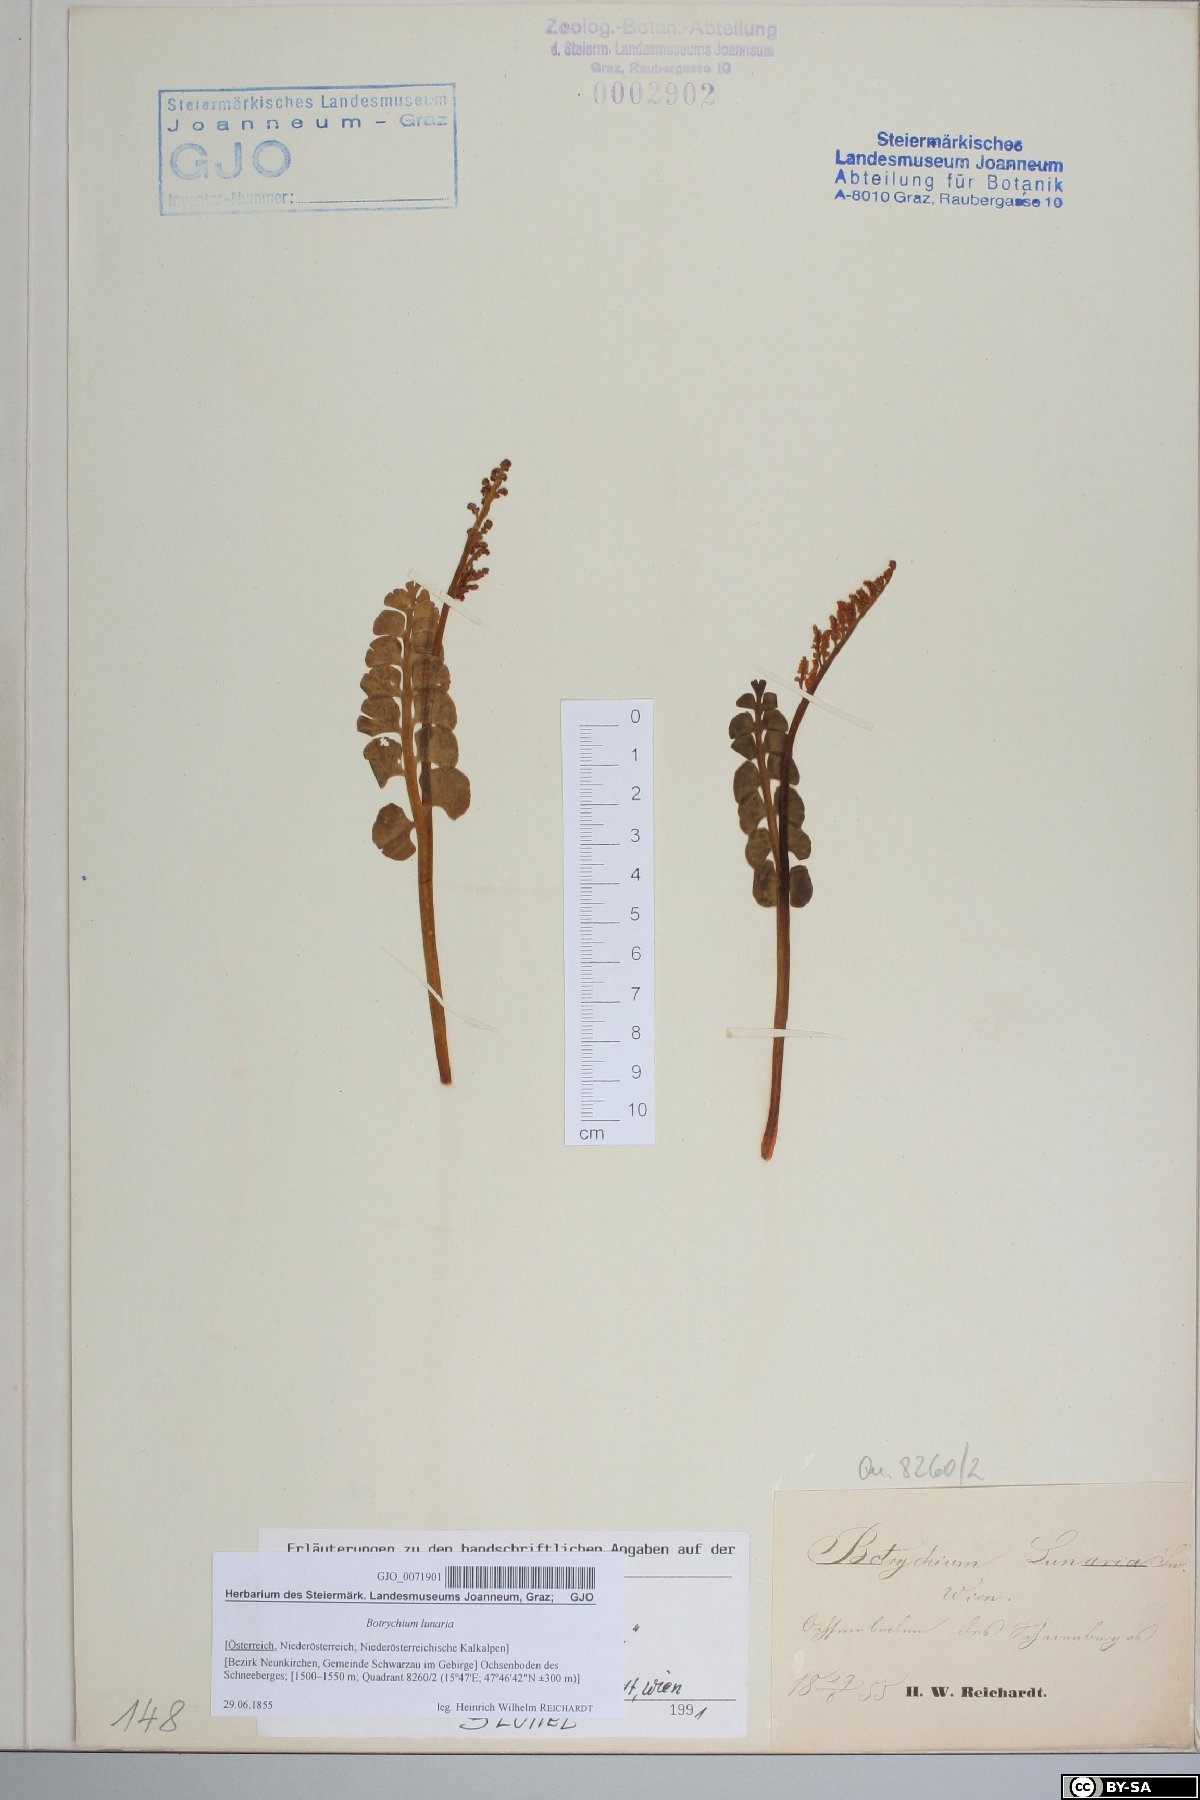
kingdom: Plantae
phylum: Tracheophyta
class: Polypodiopsida
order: Ophioglossales
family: Ophioglossaceae
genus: Botrychium
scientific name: Botrychium lunaria
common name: Moonwort
